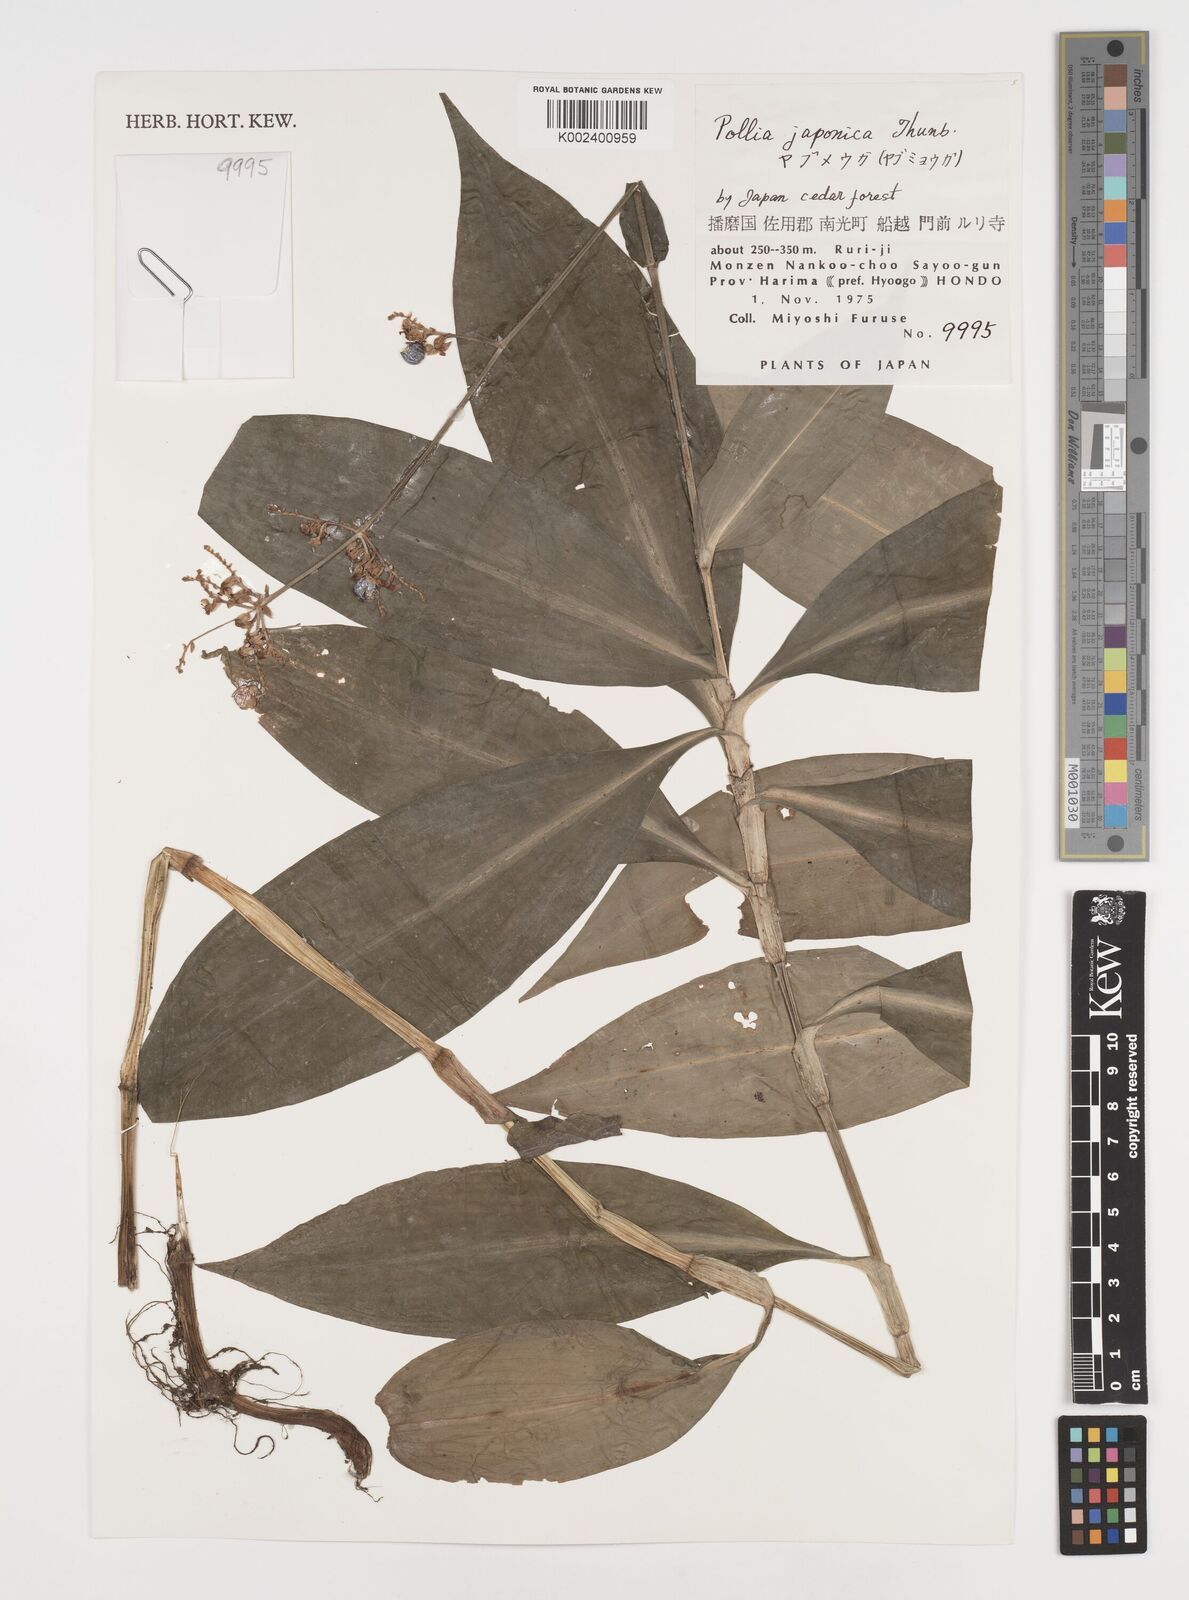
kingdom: Plantae
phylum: Tracheophyta
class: Liliopsida
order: Commelinales
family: Commelinaceae
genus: Pollia
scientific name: Pollia japonica
